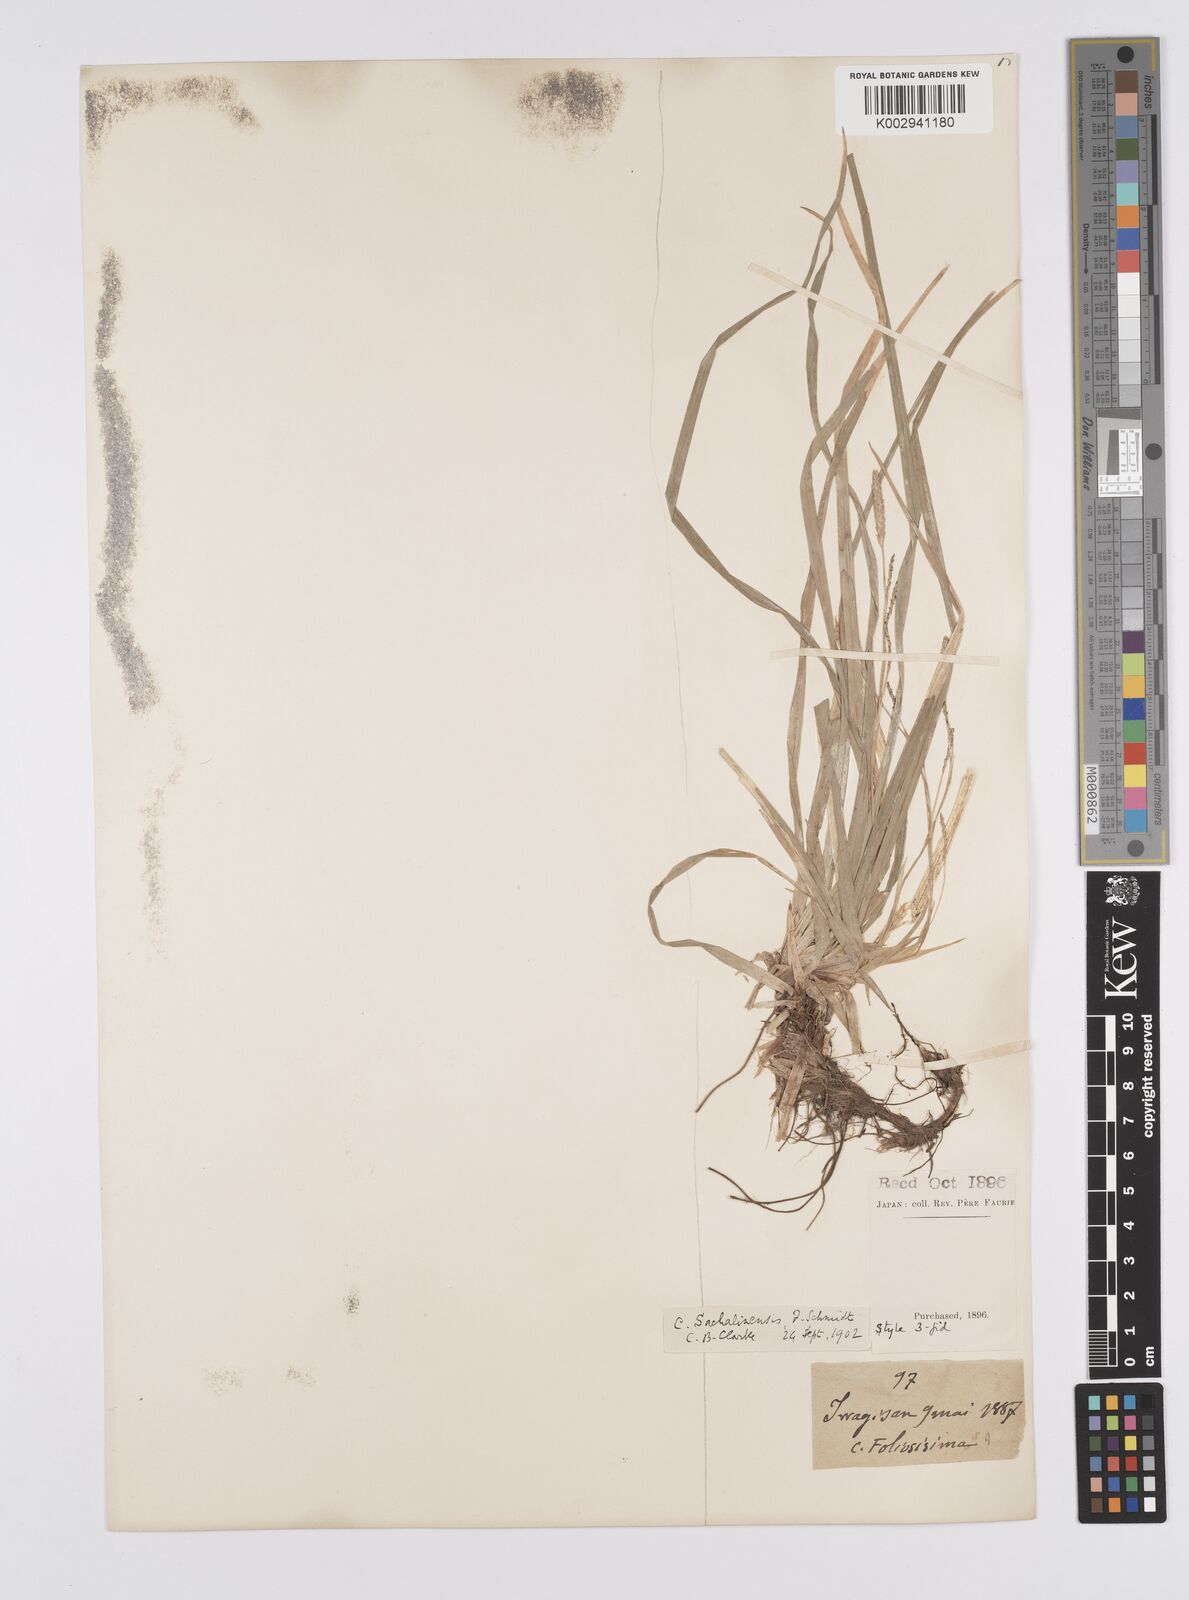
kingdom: Plantae
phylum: Tracheophyta
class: Liliopsida
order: Poales
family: Cyperaceae
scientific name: Cyperaceae
